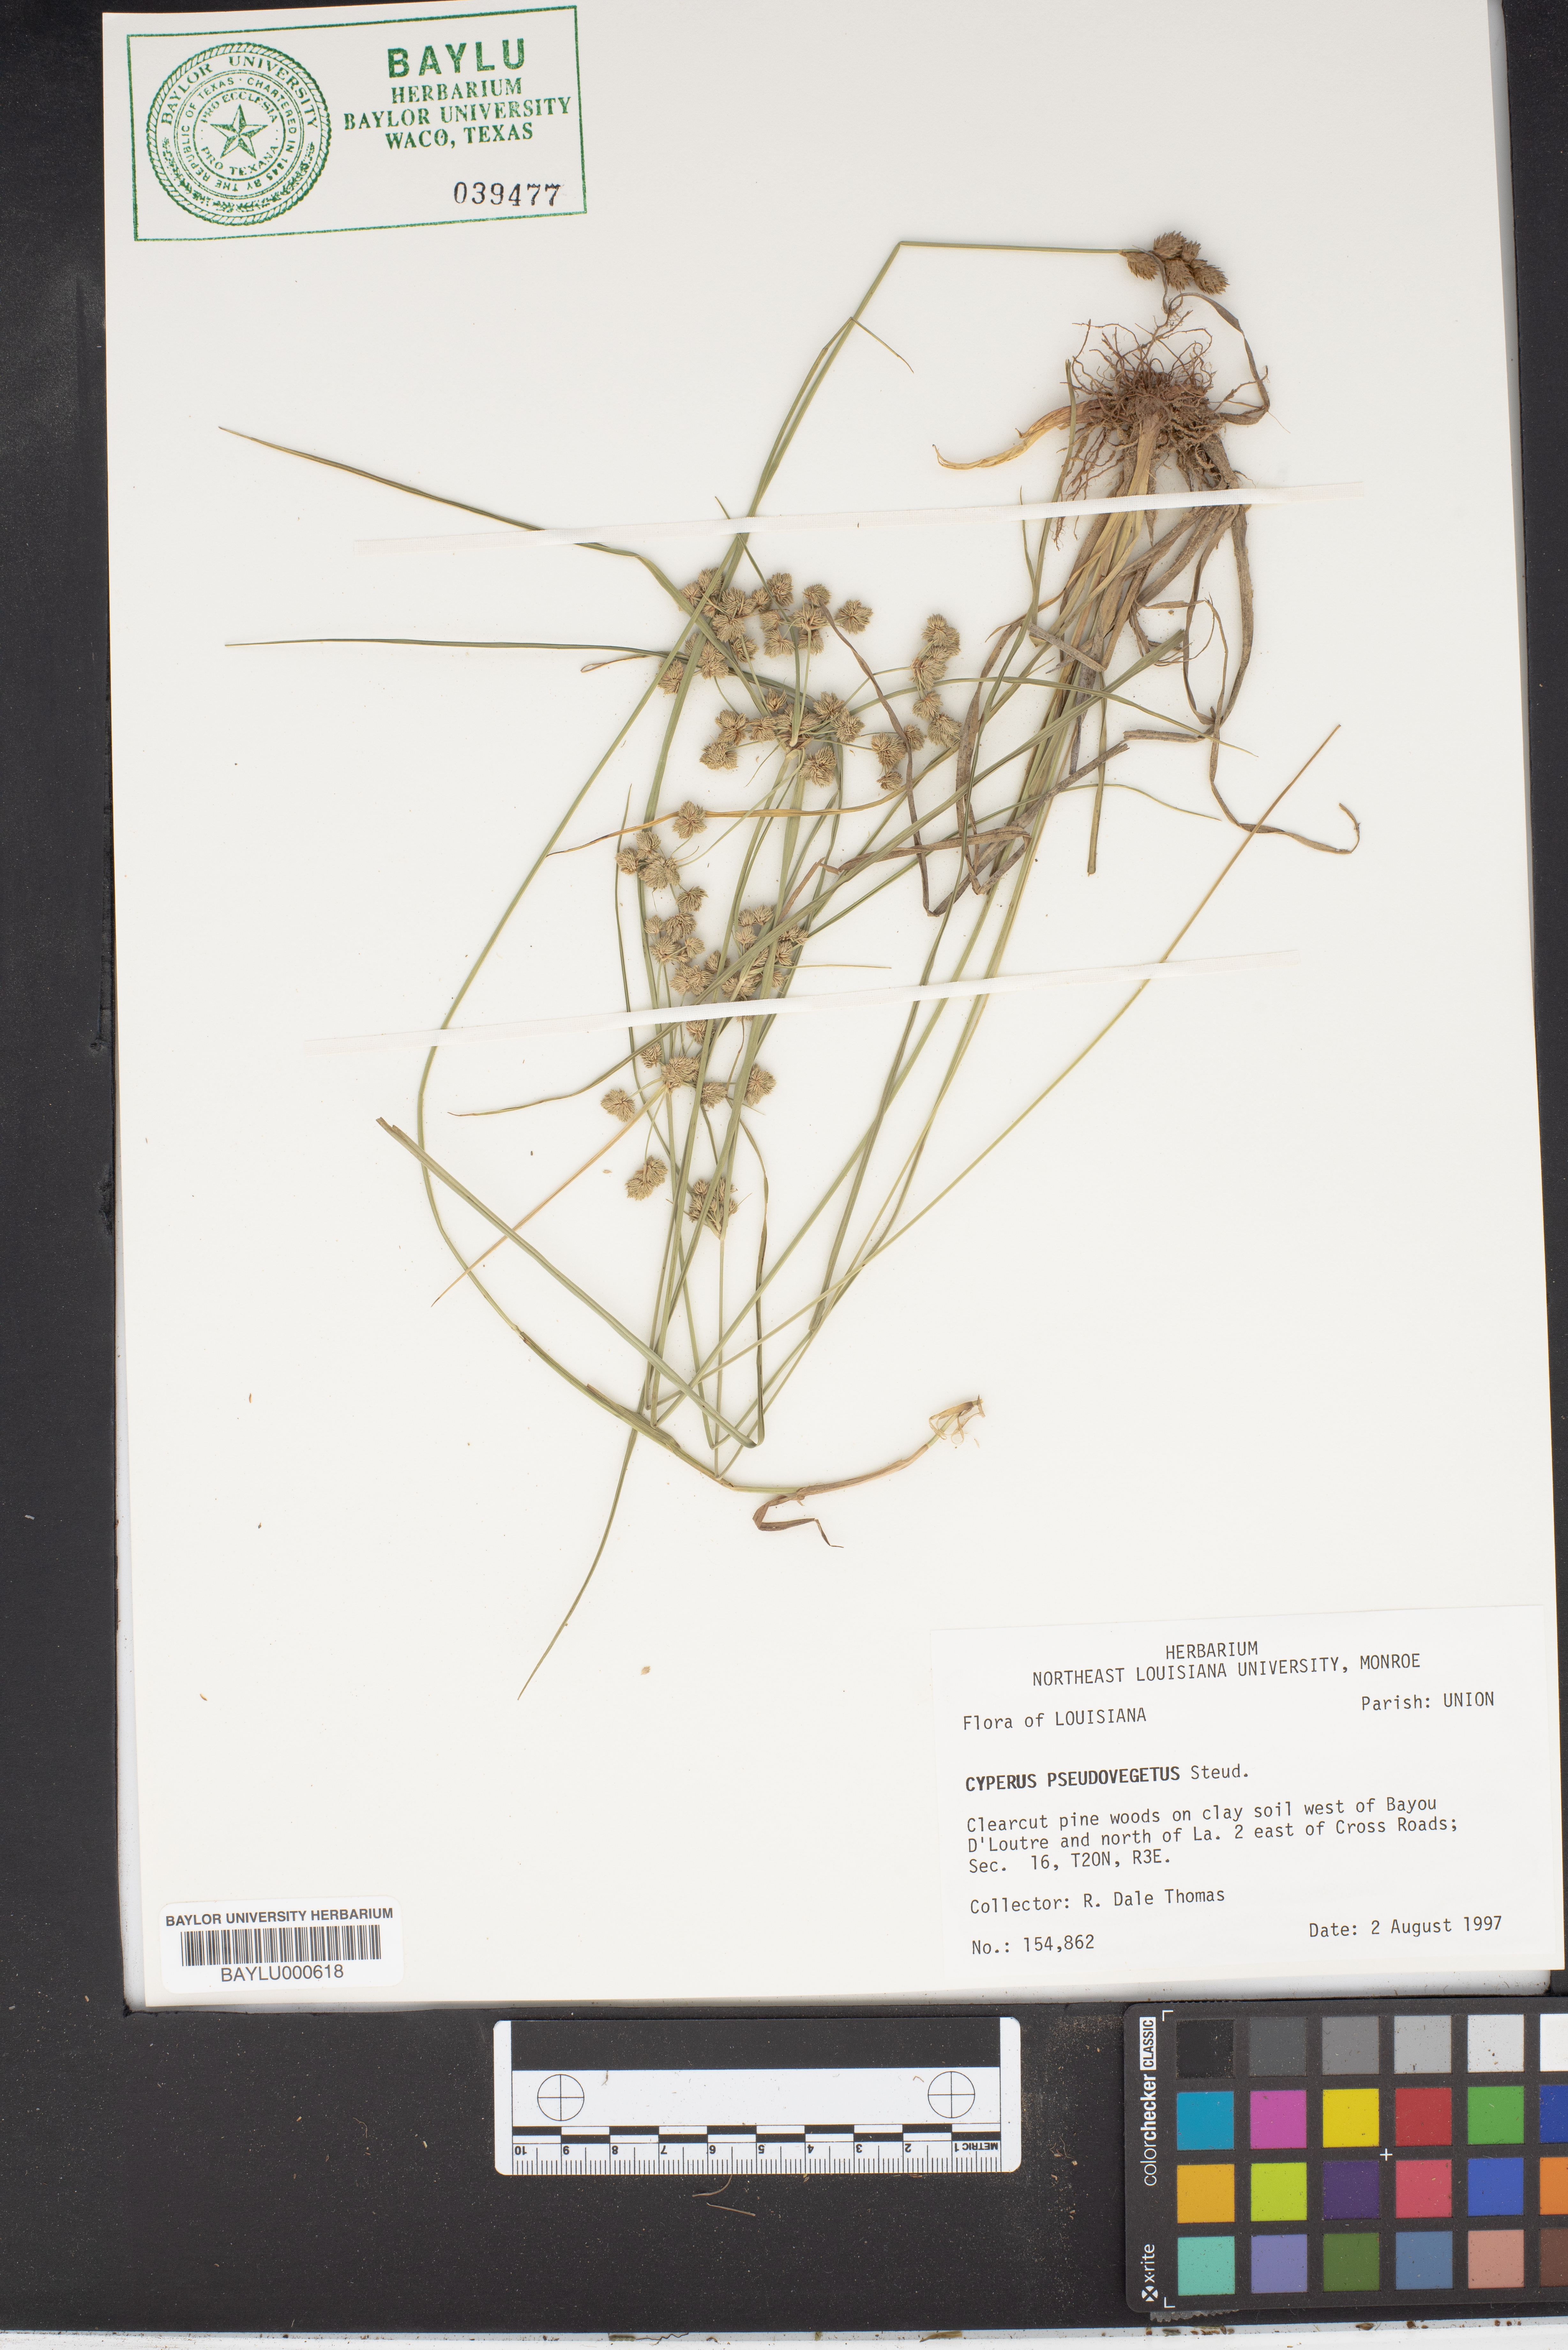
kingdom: Plantae
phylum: Tracheophyta
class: Liliopsida
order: Poales
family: Cyperaceae
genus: Cyperus
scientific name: Cyperus pseudovegetus
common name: Marsh flat sedge
